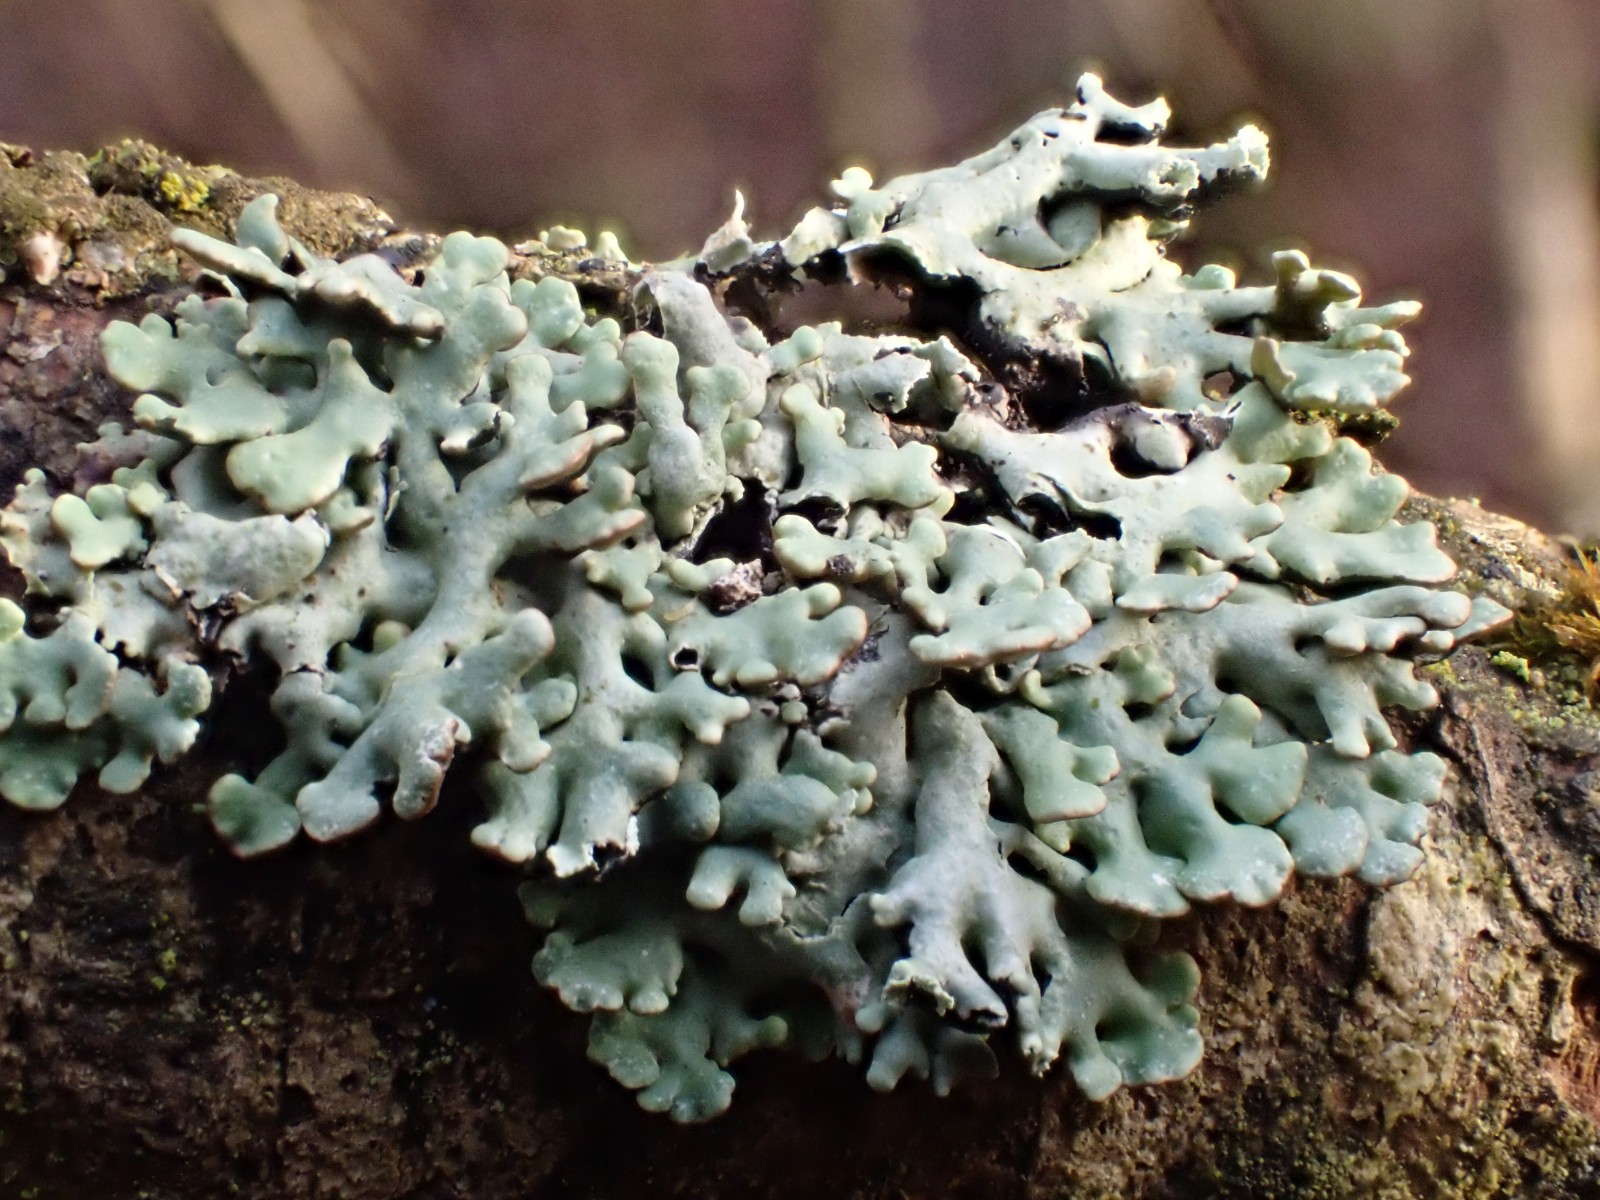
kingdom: Fungi
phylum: Ascomycota
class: Lecanoromycetes
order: Lecanorales
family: Parmeliaceae
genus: Hypogymnia
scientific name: Hypogymnia physodes
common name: almindelig kvistlav
